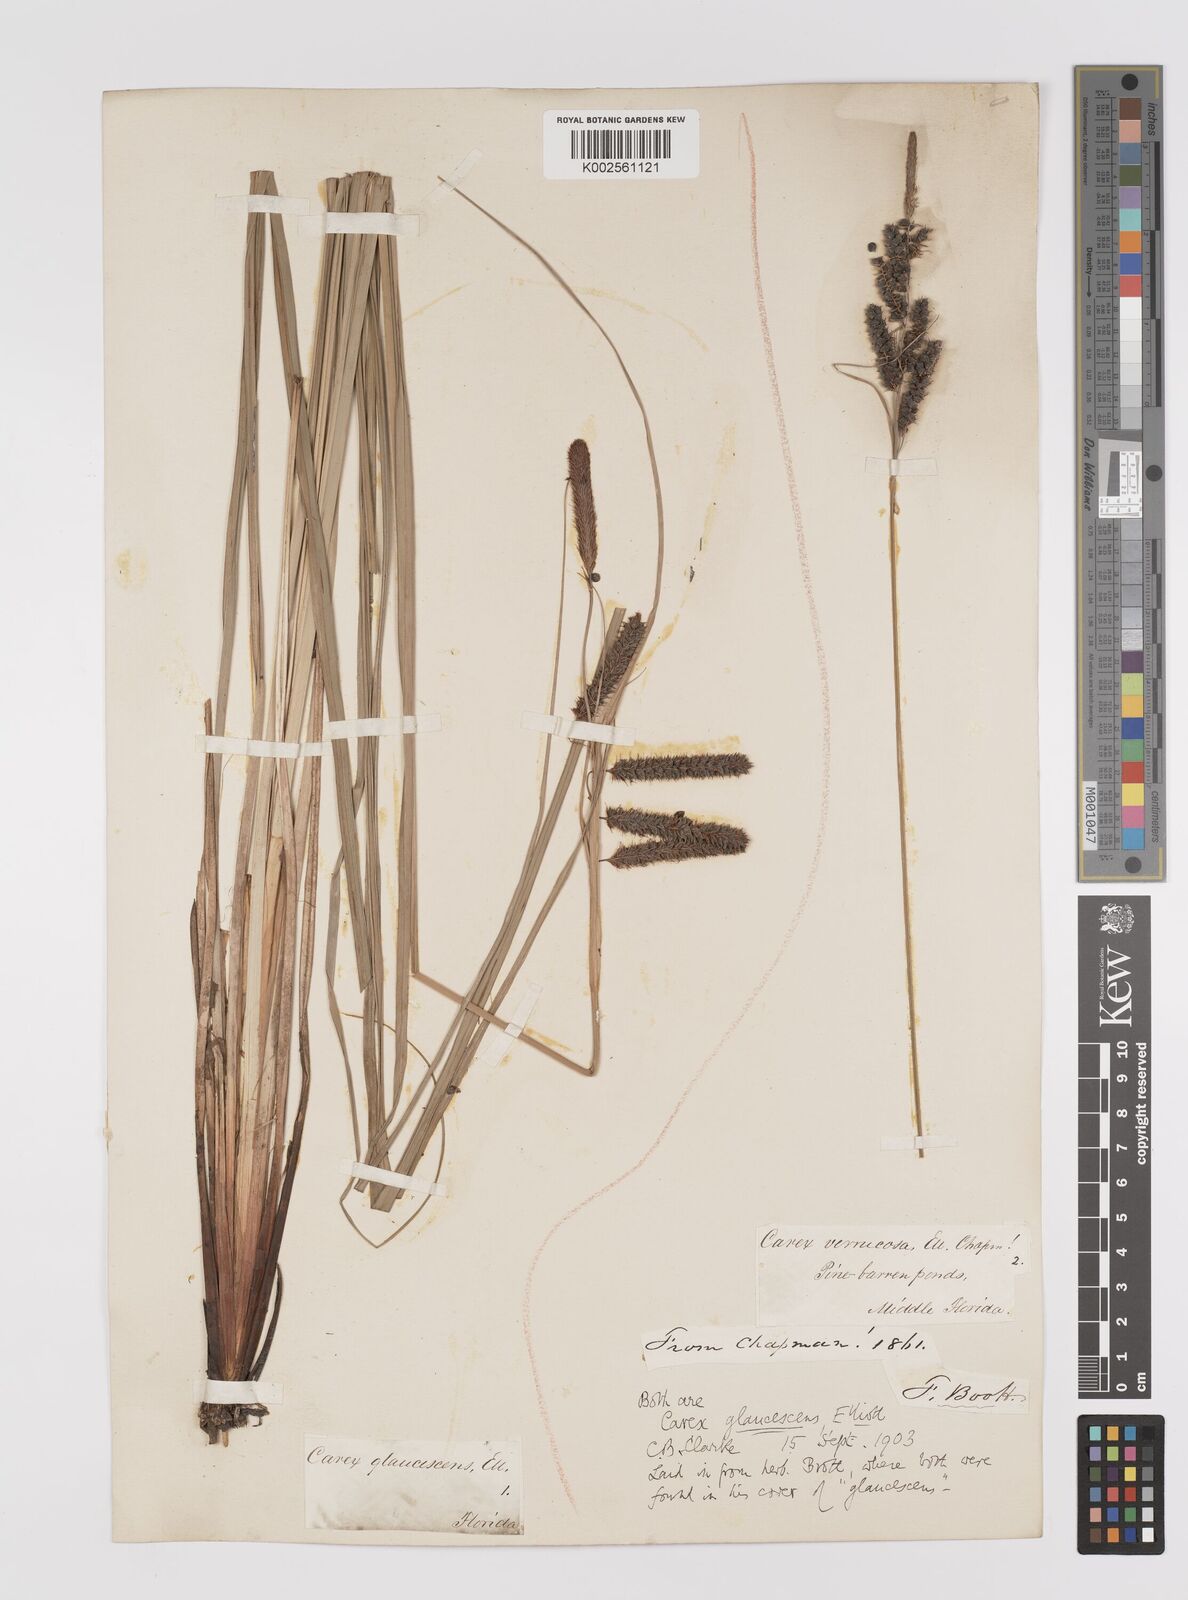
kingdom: Plantae
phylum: Tracheophyta
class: Liliopsida
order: Poales
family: Cyperaceae
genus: Carex
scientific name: Carex glaucescens
